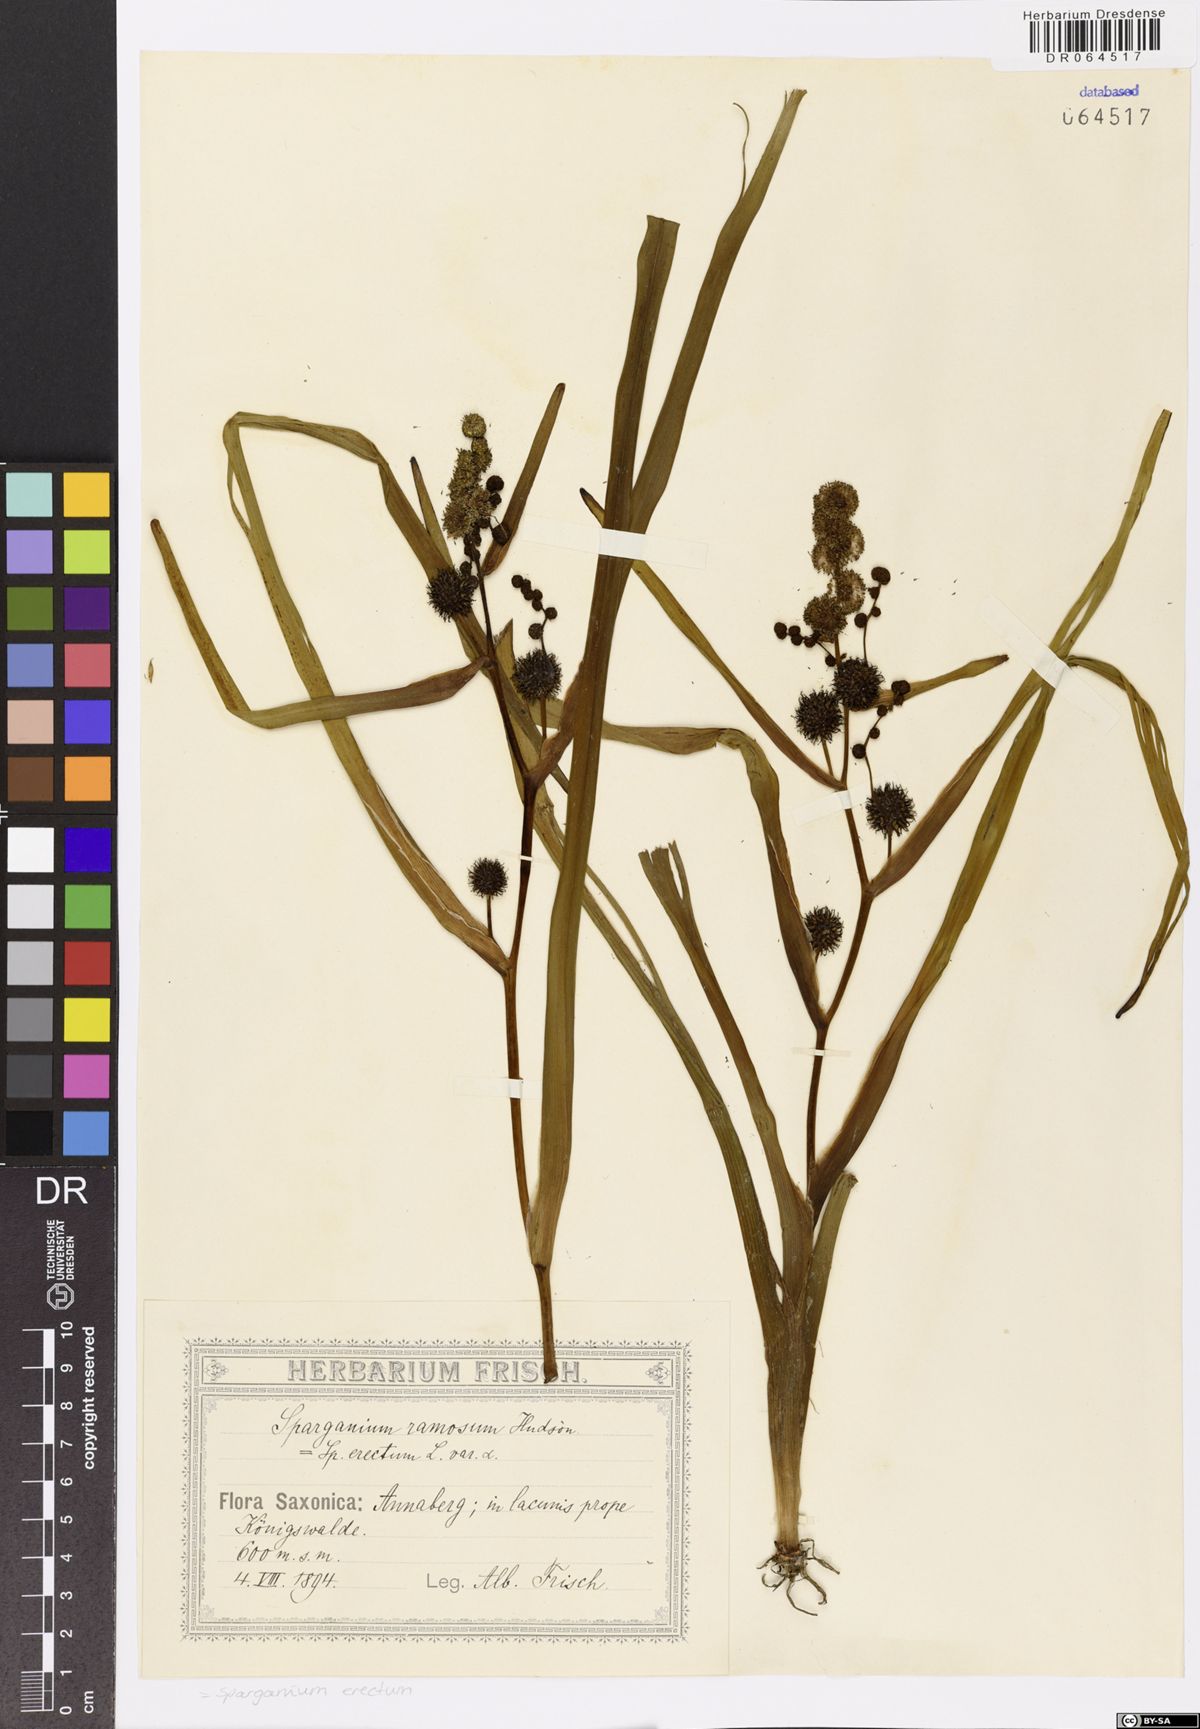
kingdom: Plantae
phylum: Tracheophyta
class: Liliopsida
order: Poales
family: Typhaceae
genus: Sparganium
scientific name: Sparganium erectum
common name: Branched bur-reed
